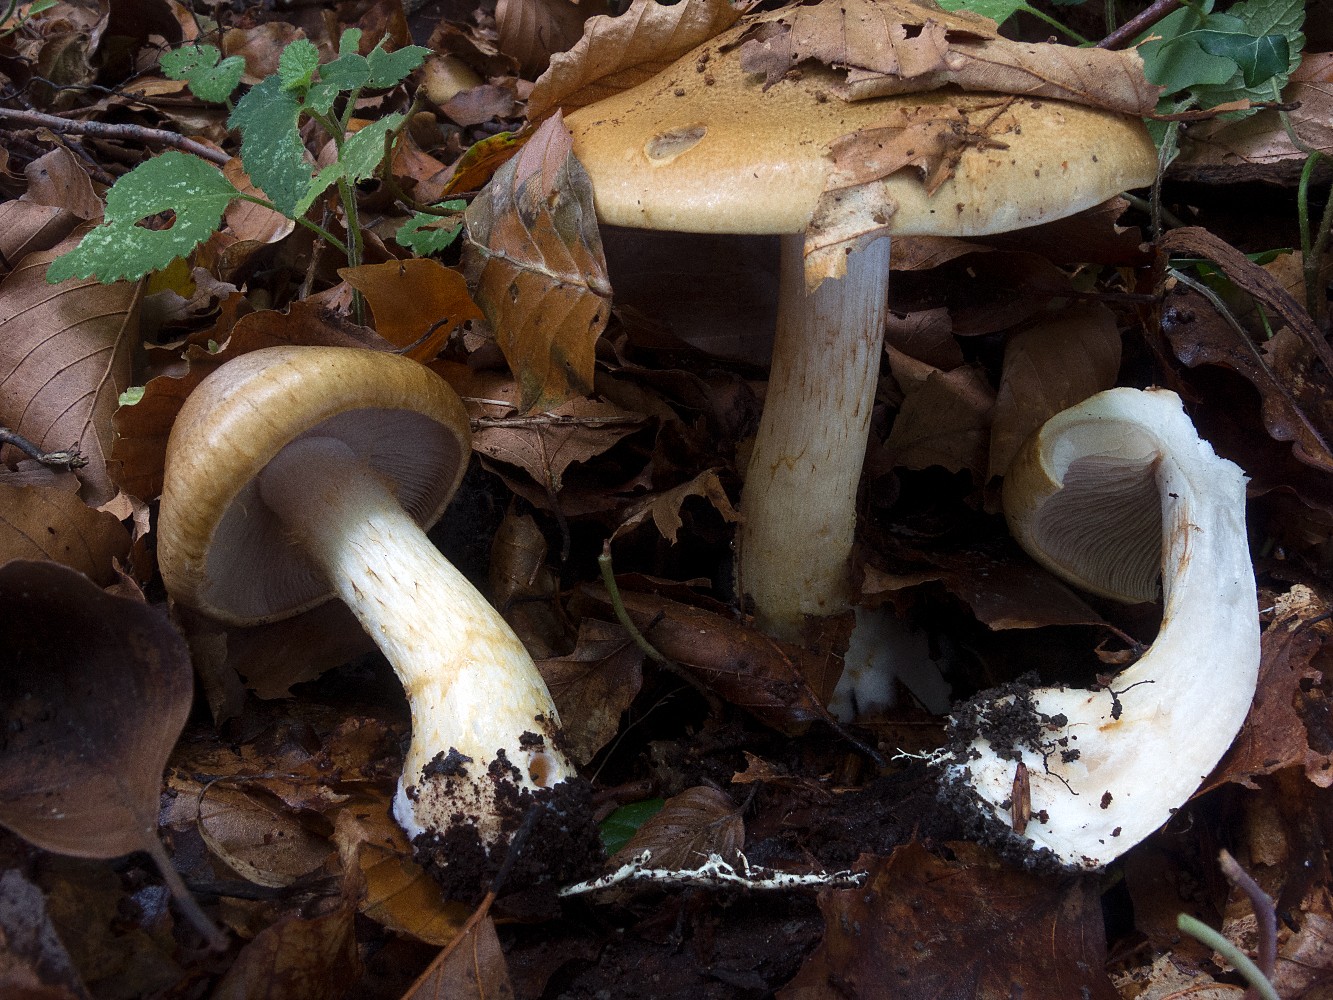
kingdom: Fungi
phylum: Basidiomycota
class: Agaricomycetes
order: Agaricales
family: Cortinariaceae
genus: Phlegmacium
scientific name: Phlegmacium cliduchus
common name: majs-slørhat
